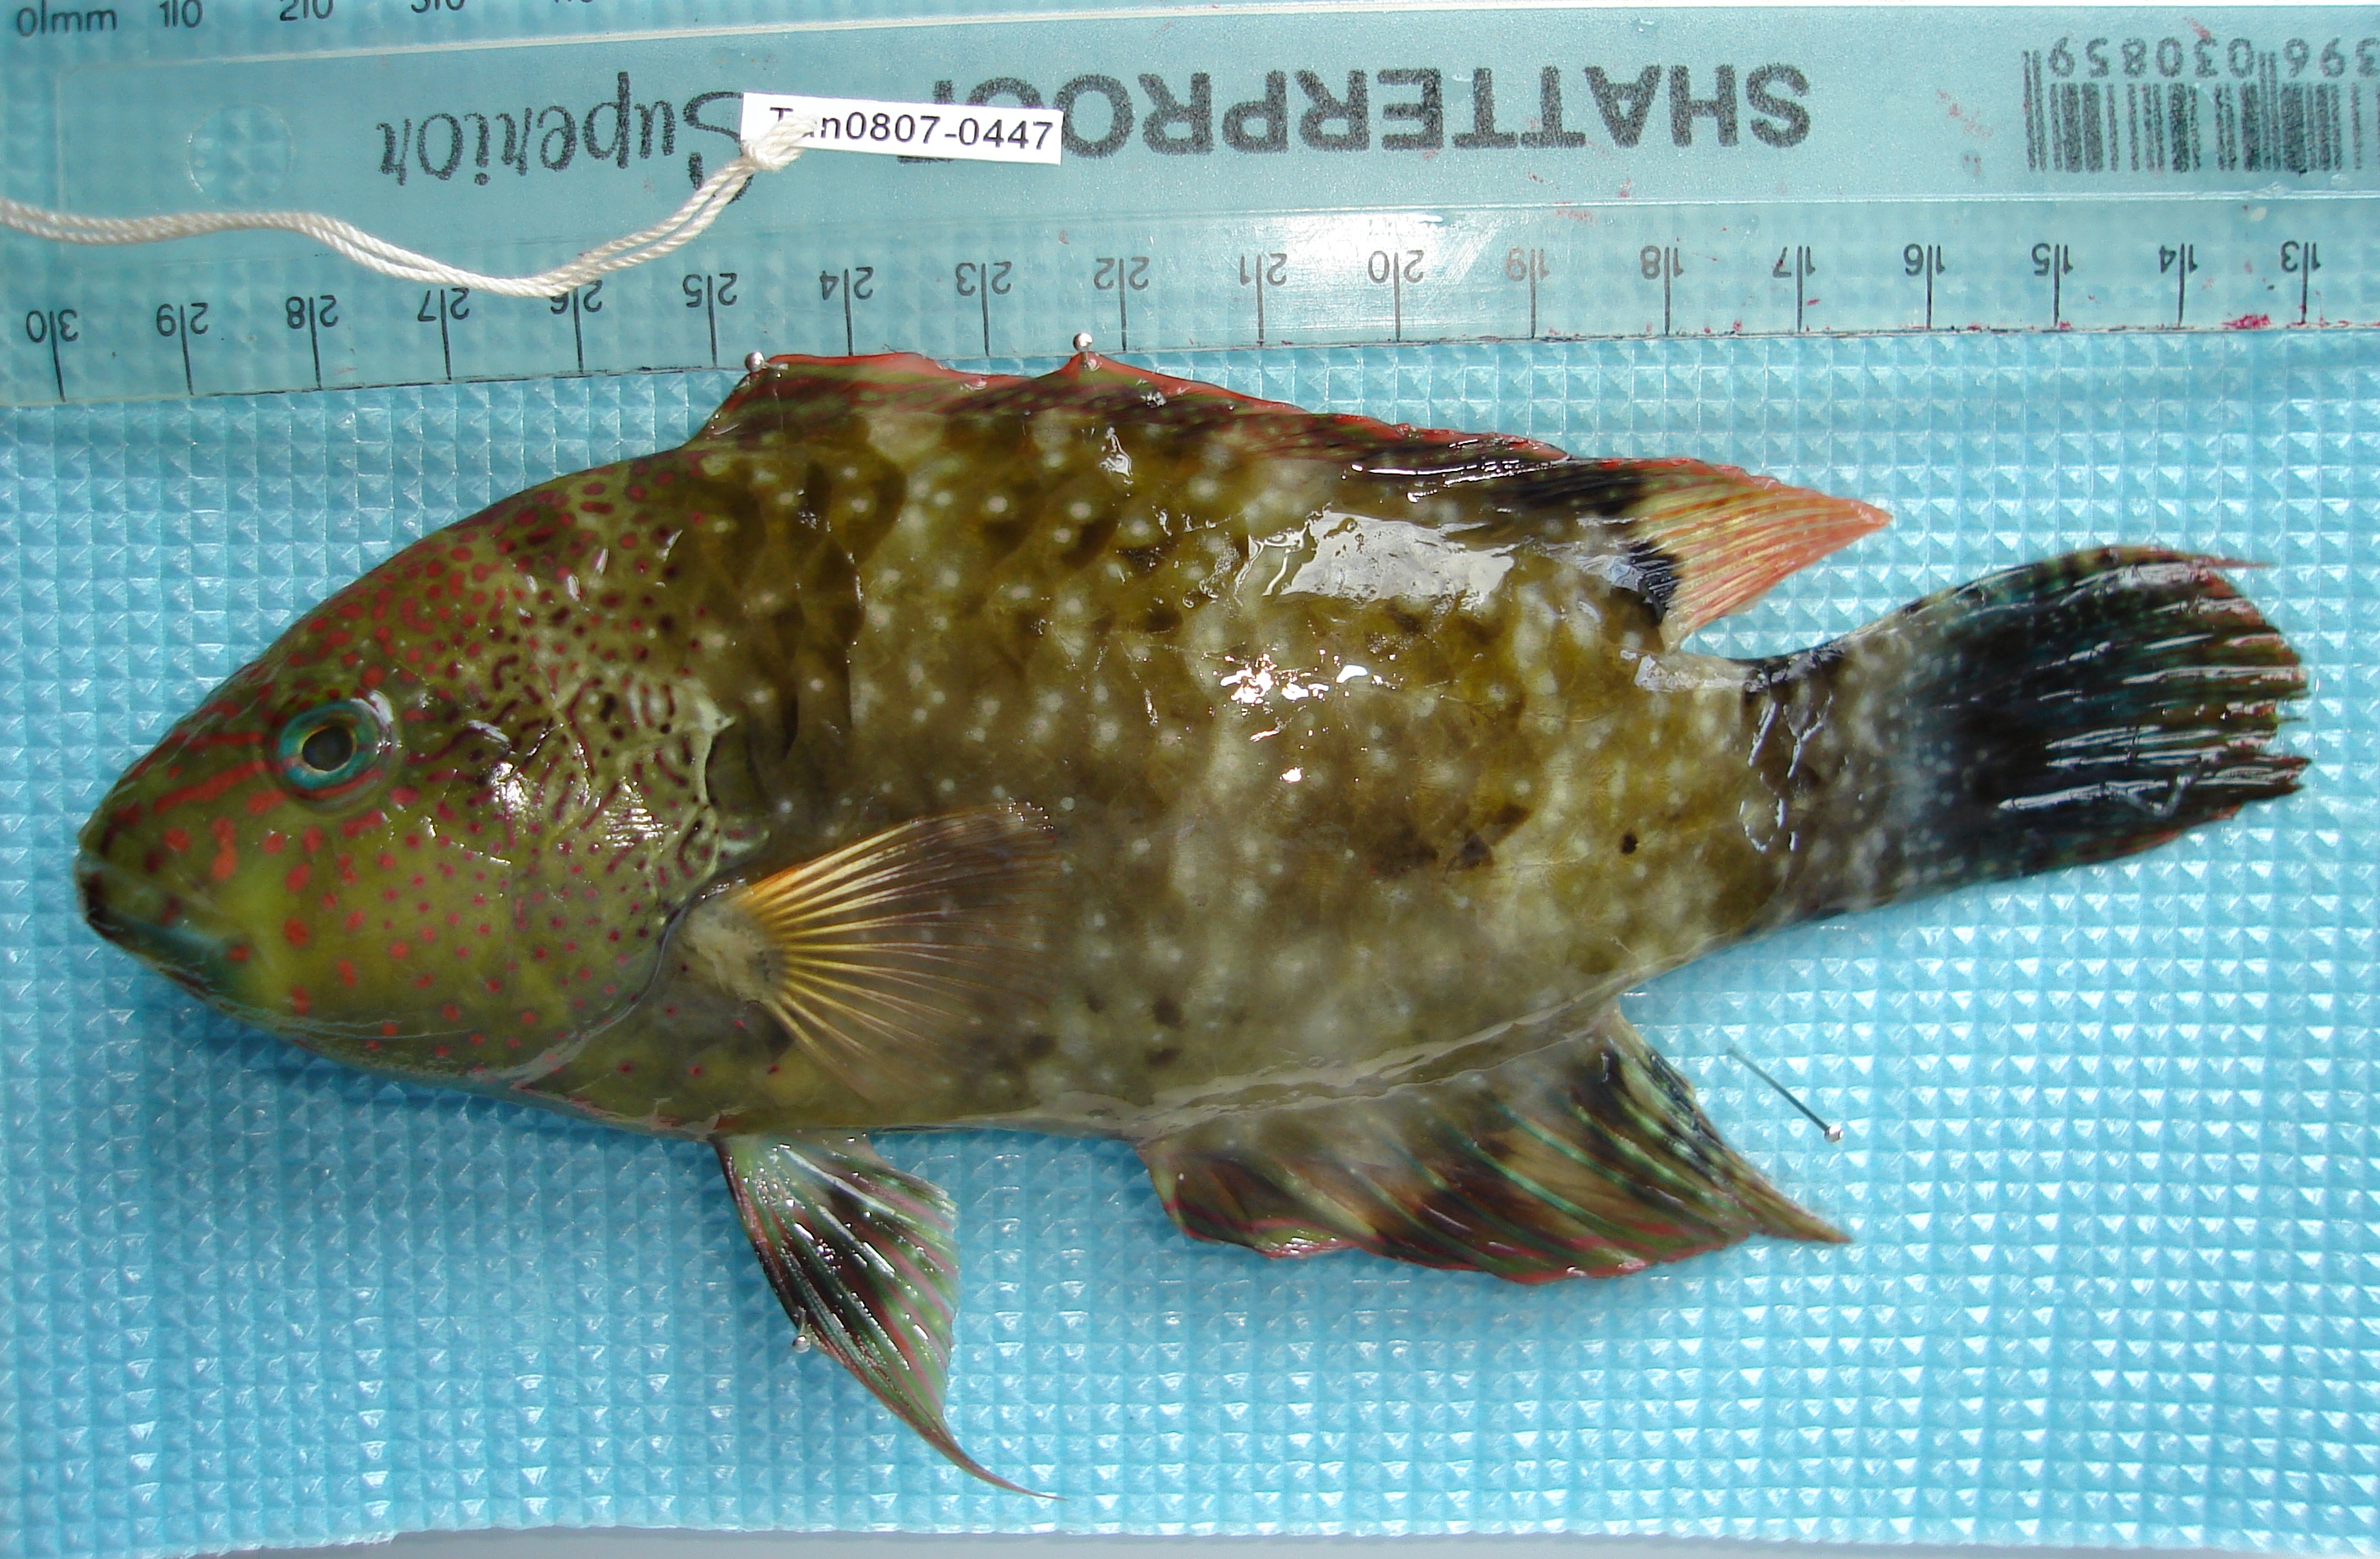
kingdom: Animalia
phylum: Chordata
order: Perciformes
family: Labridae
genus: Cheilinus
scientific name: Cheilinus chlorourus
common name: Floral wrasse
